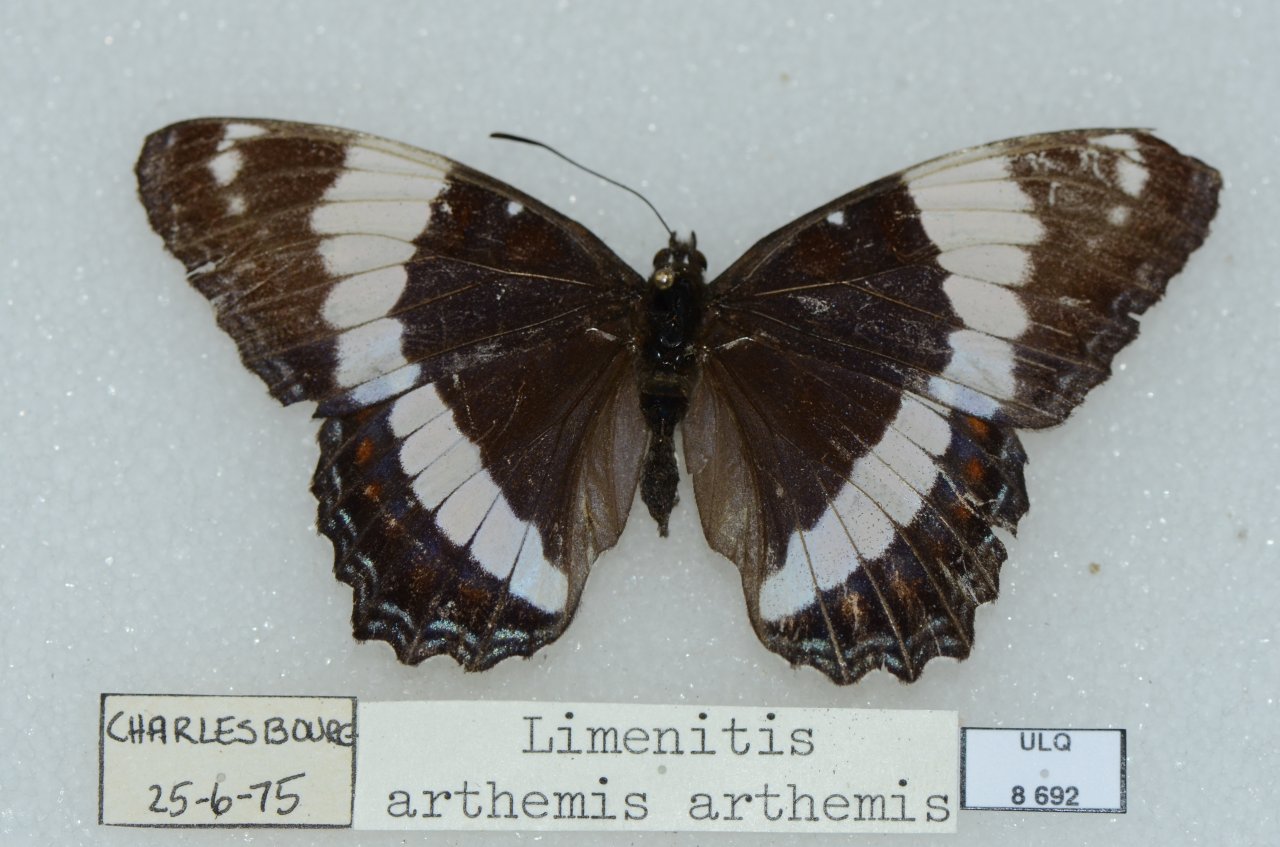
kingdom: Animalia
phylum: Arthropoda
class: Insecta
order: Lepidoptera
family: Nymphalidae
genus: Limenitis
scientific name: Limenitis arthemis
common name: Red-spotted Admiral
